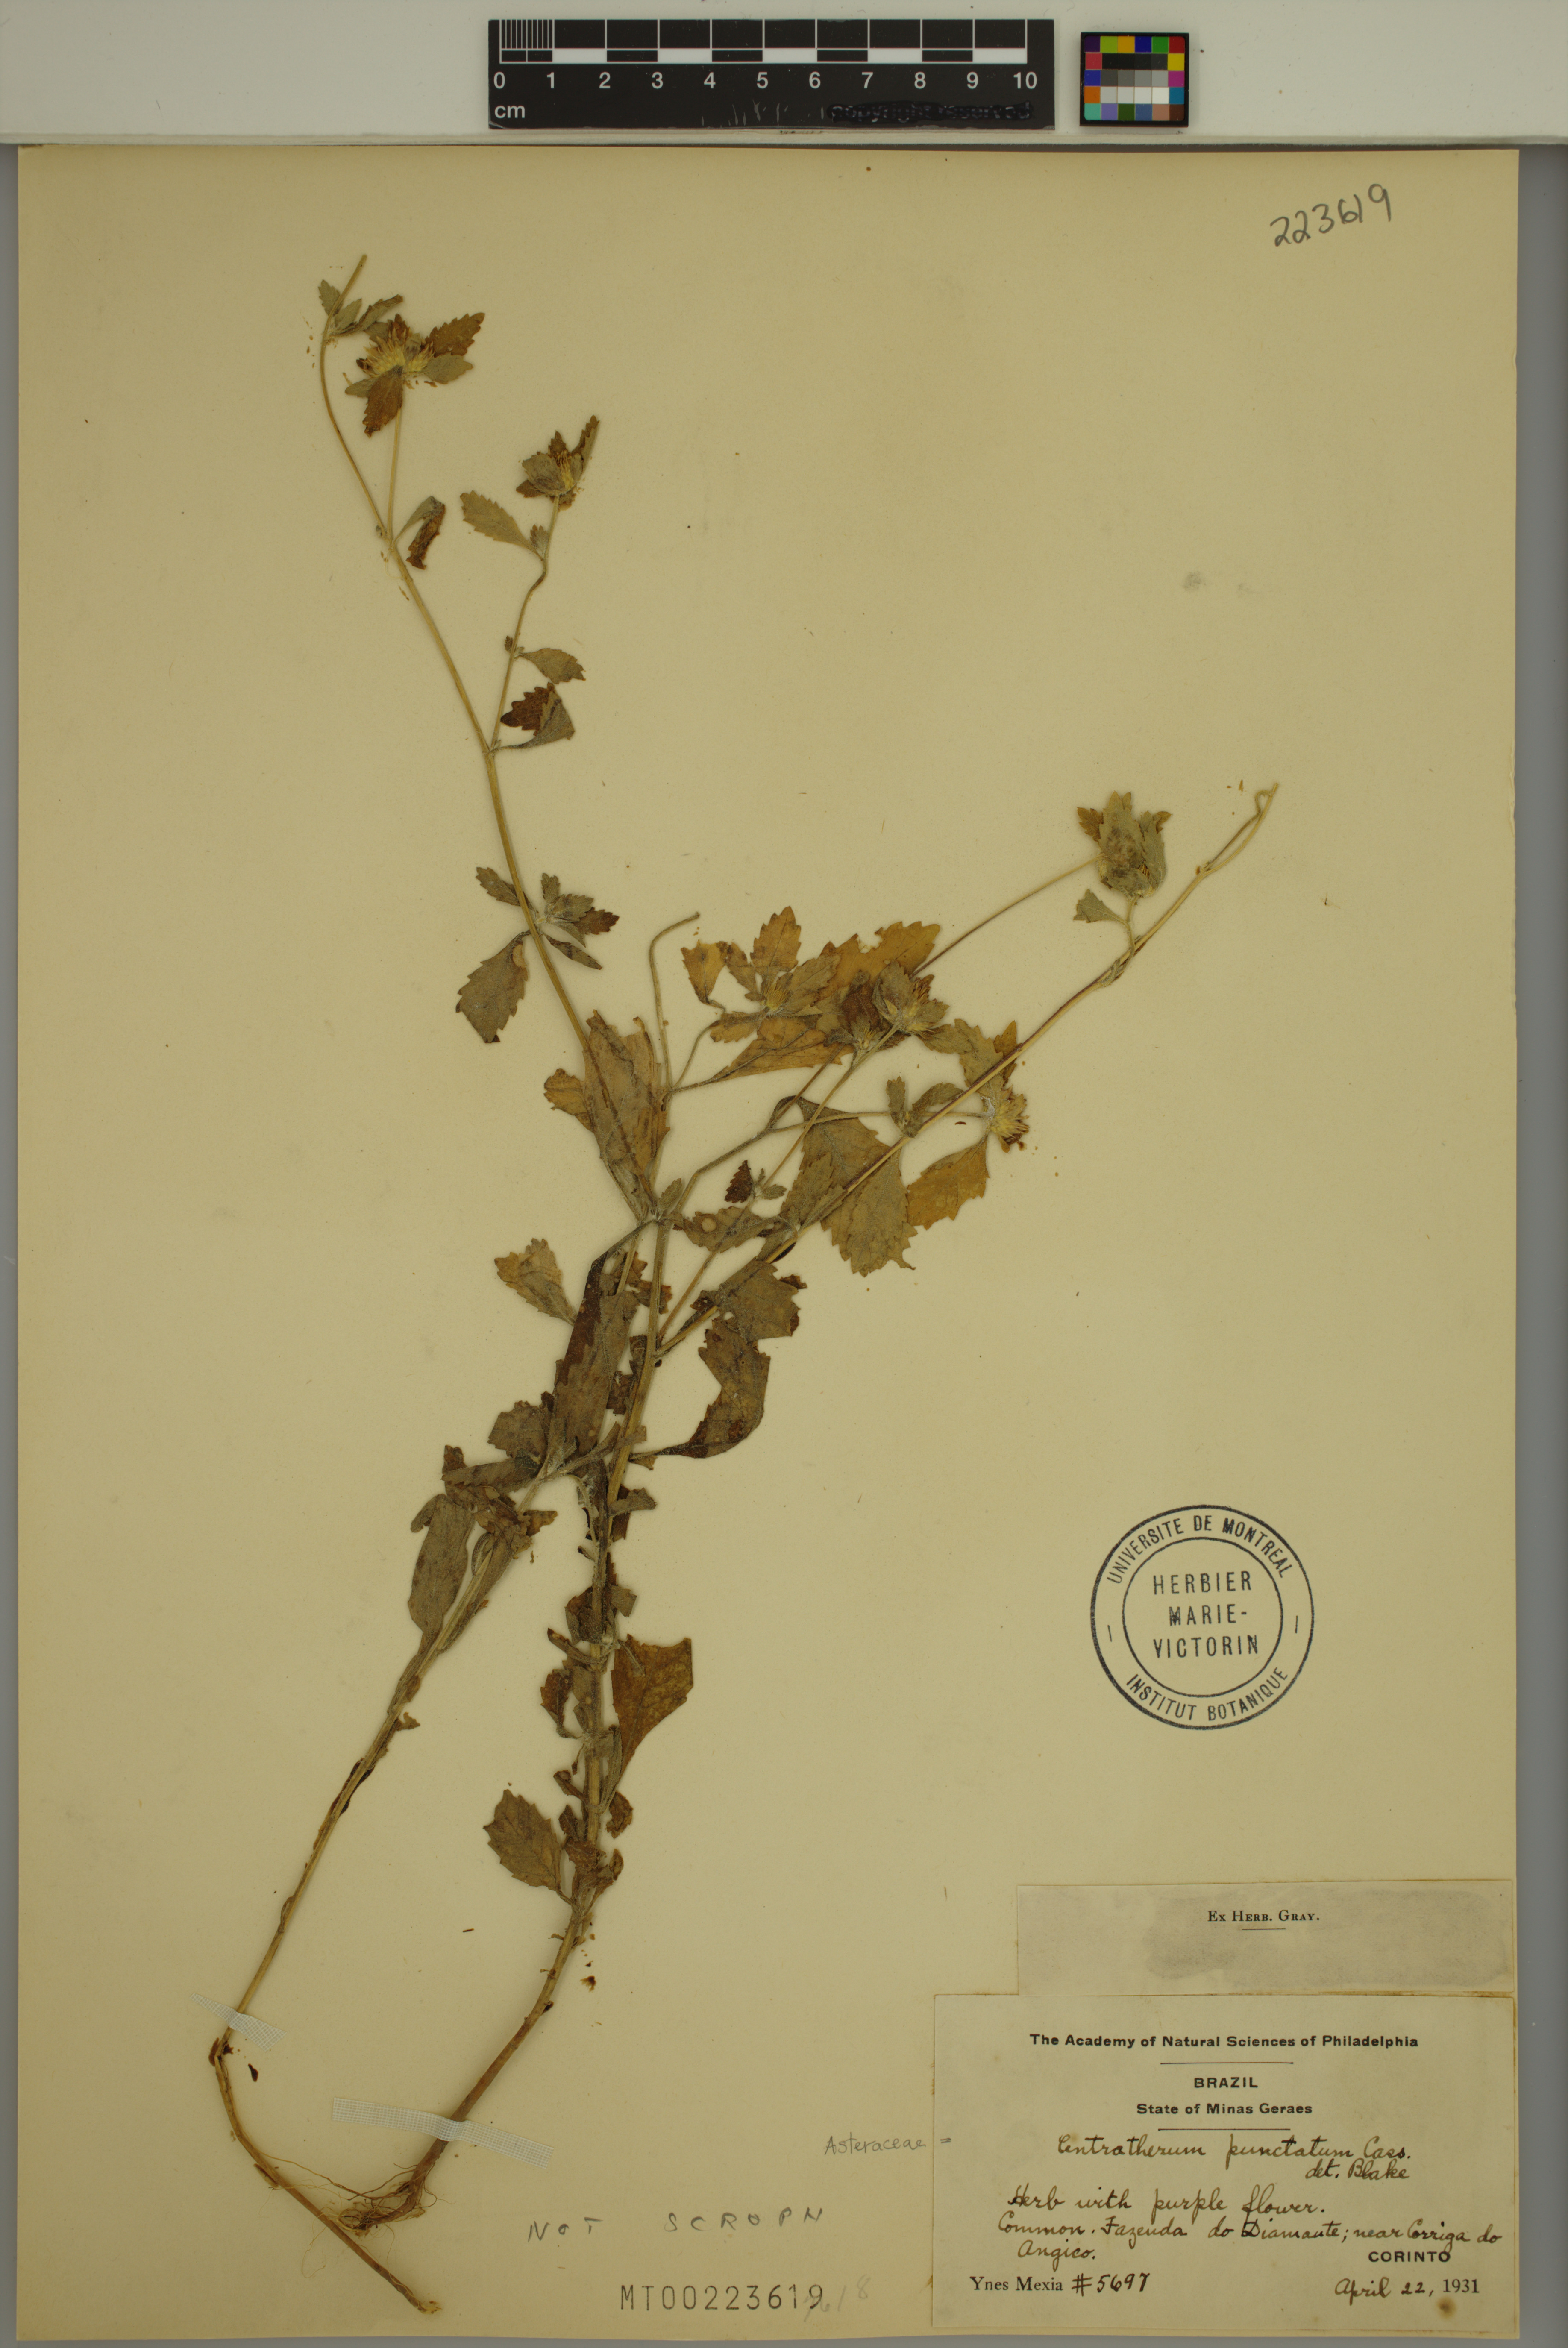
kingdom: Plantae
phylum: Tracheophyta
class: Magnoliopsida
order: Asterales
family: Asteraceae
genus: Centratherum
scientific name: Centratherum punctatum
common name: Larkdaisy
